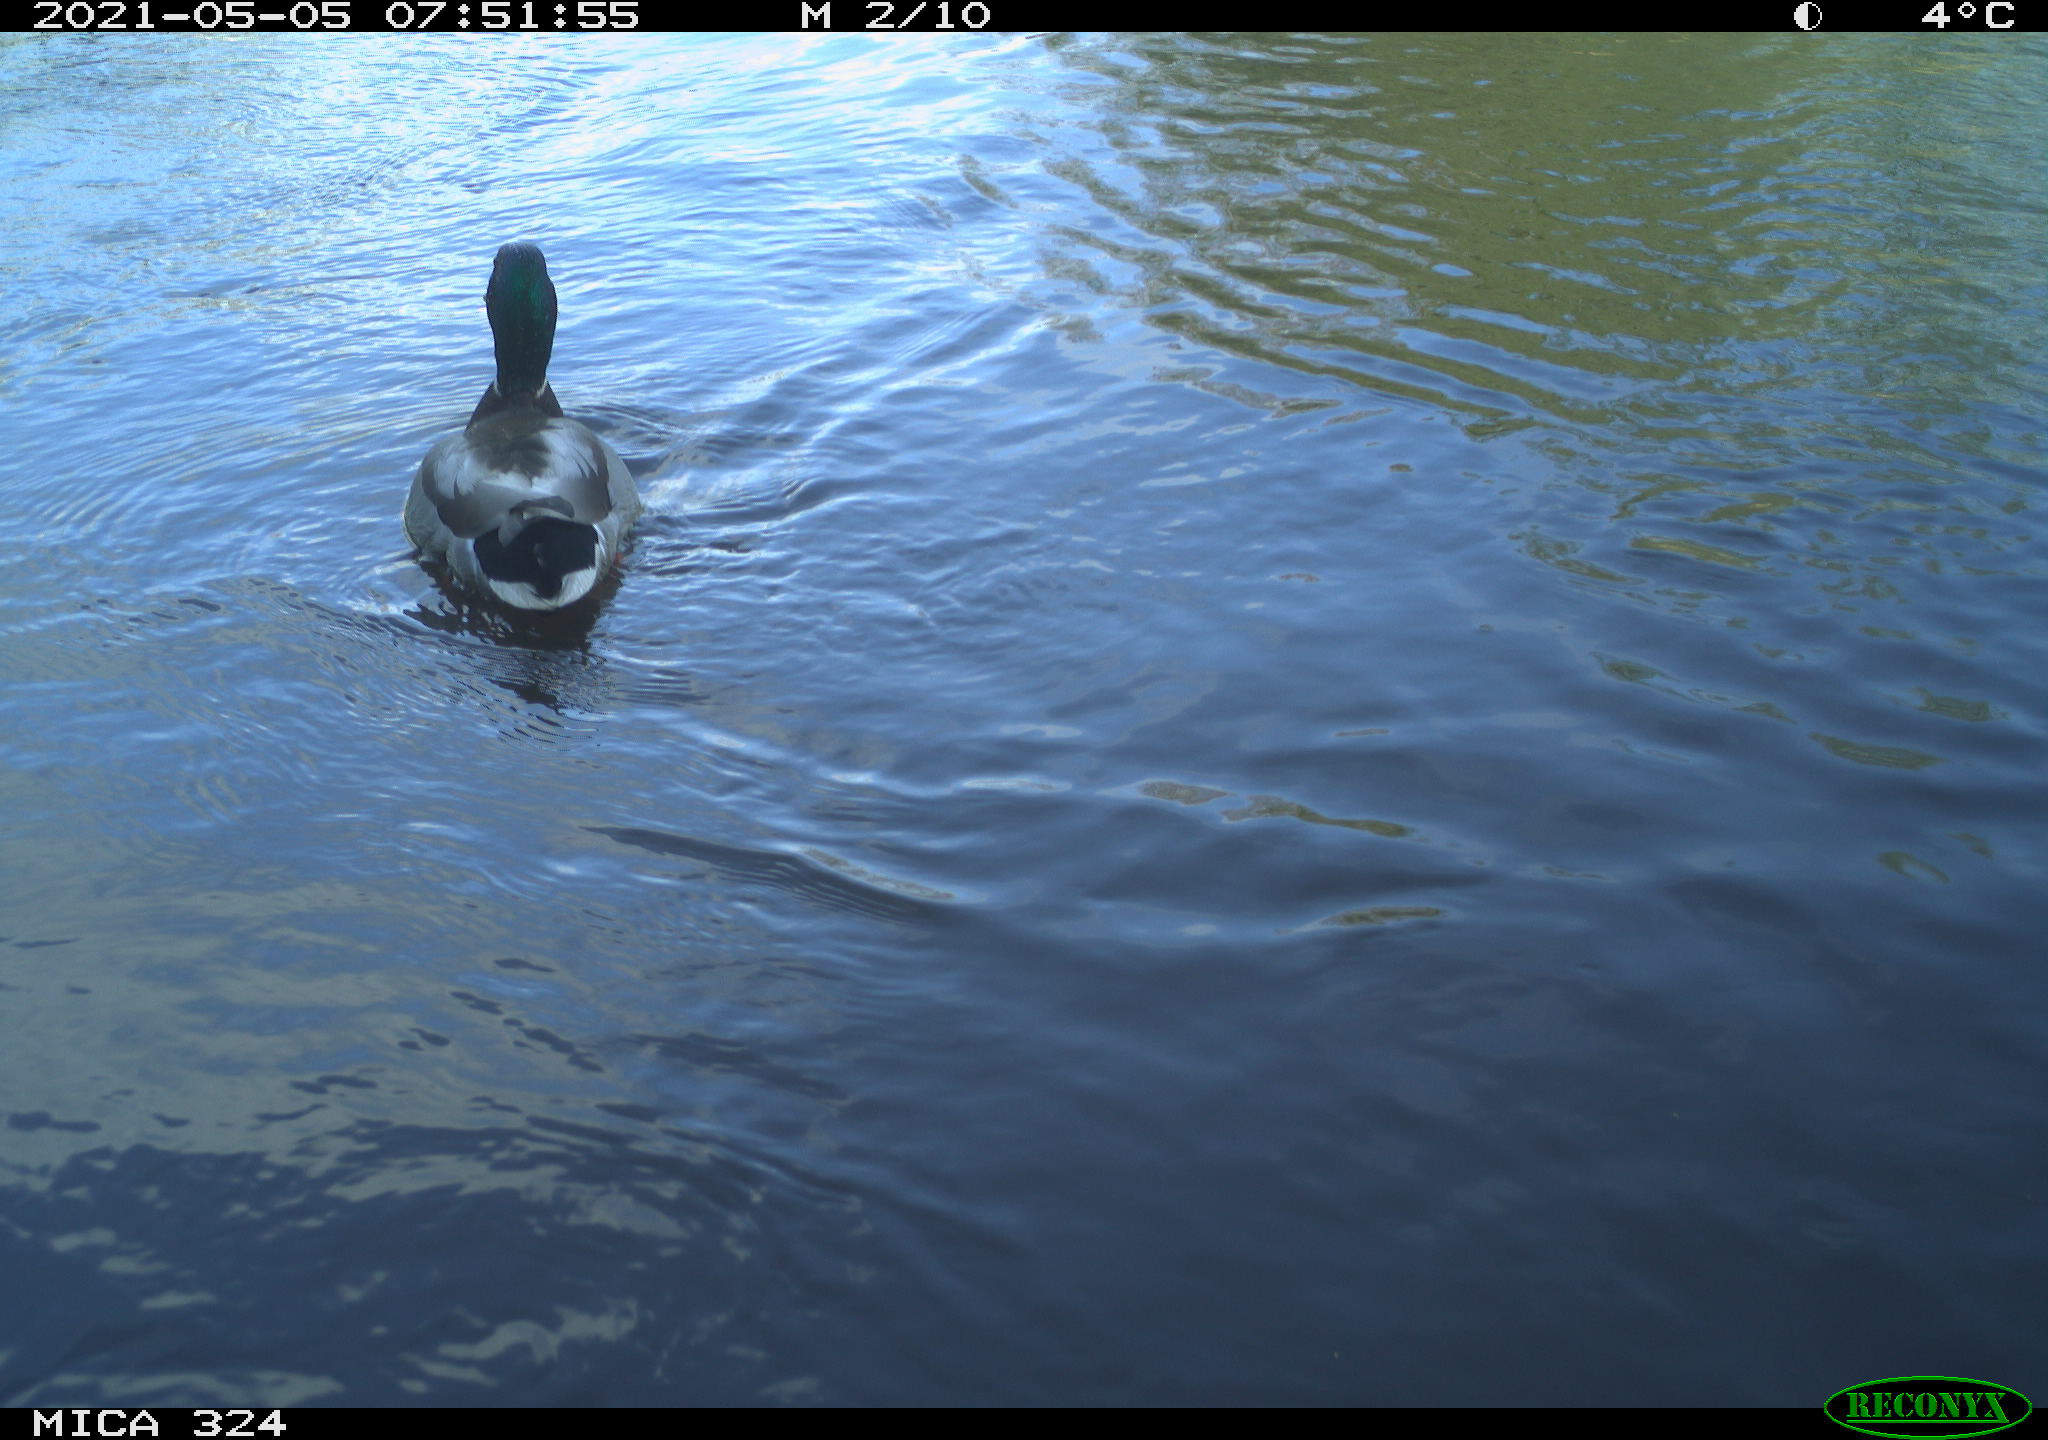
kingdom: Animalia
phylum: Chordata
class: Aves
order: Anseriformes
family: Anatidae
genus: Anas
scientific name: Anas platyrhynchos
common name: Mallard
